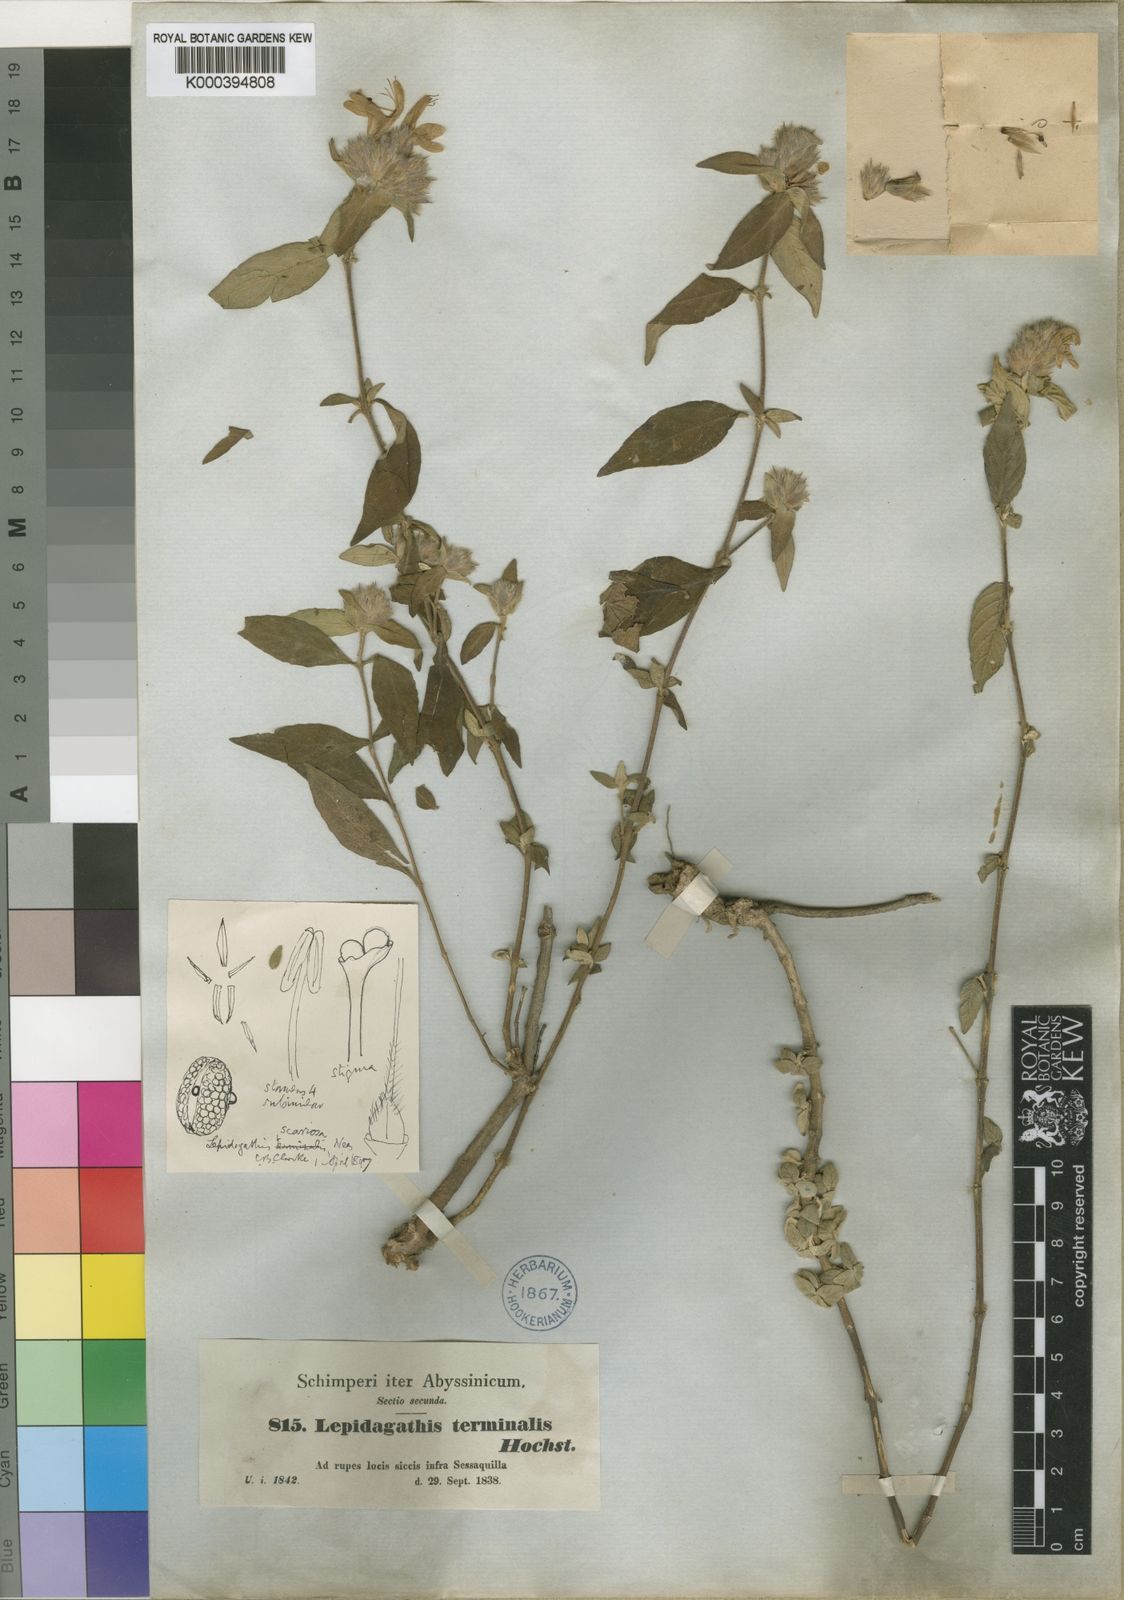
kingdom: Plantae
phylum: Tracheophyta
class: Magnoliopsida
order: Lamiales
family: Acanthaceae
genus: Lepidagathis
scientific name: Lepidagathis scariosa
